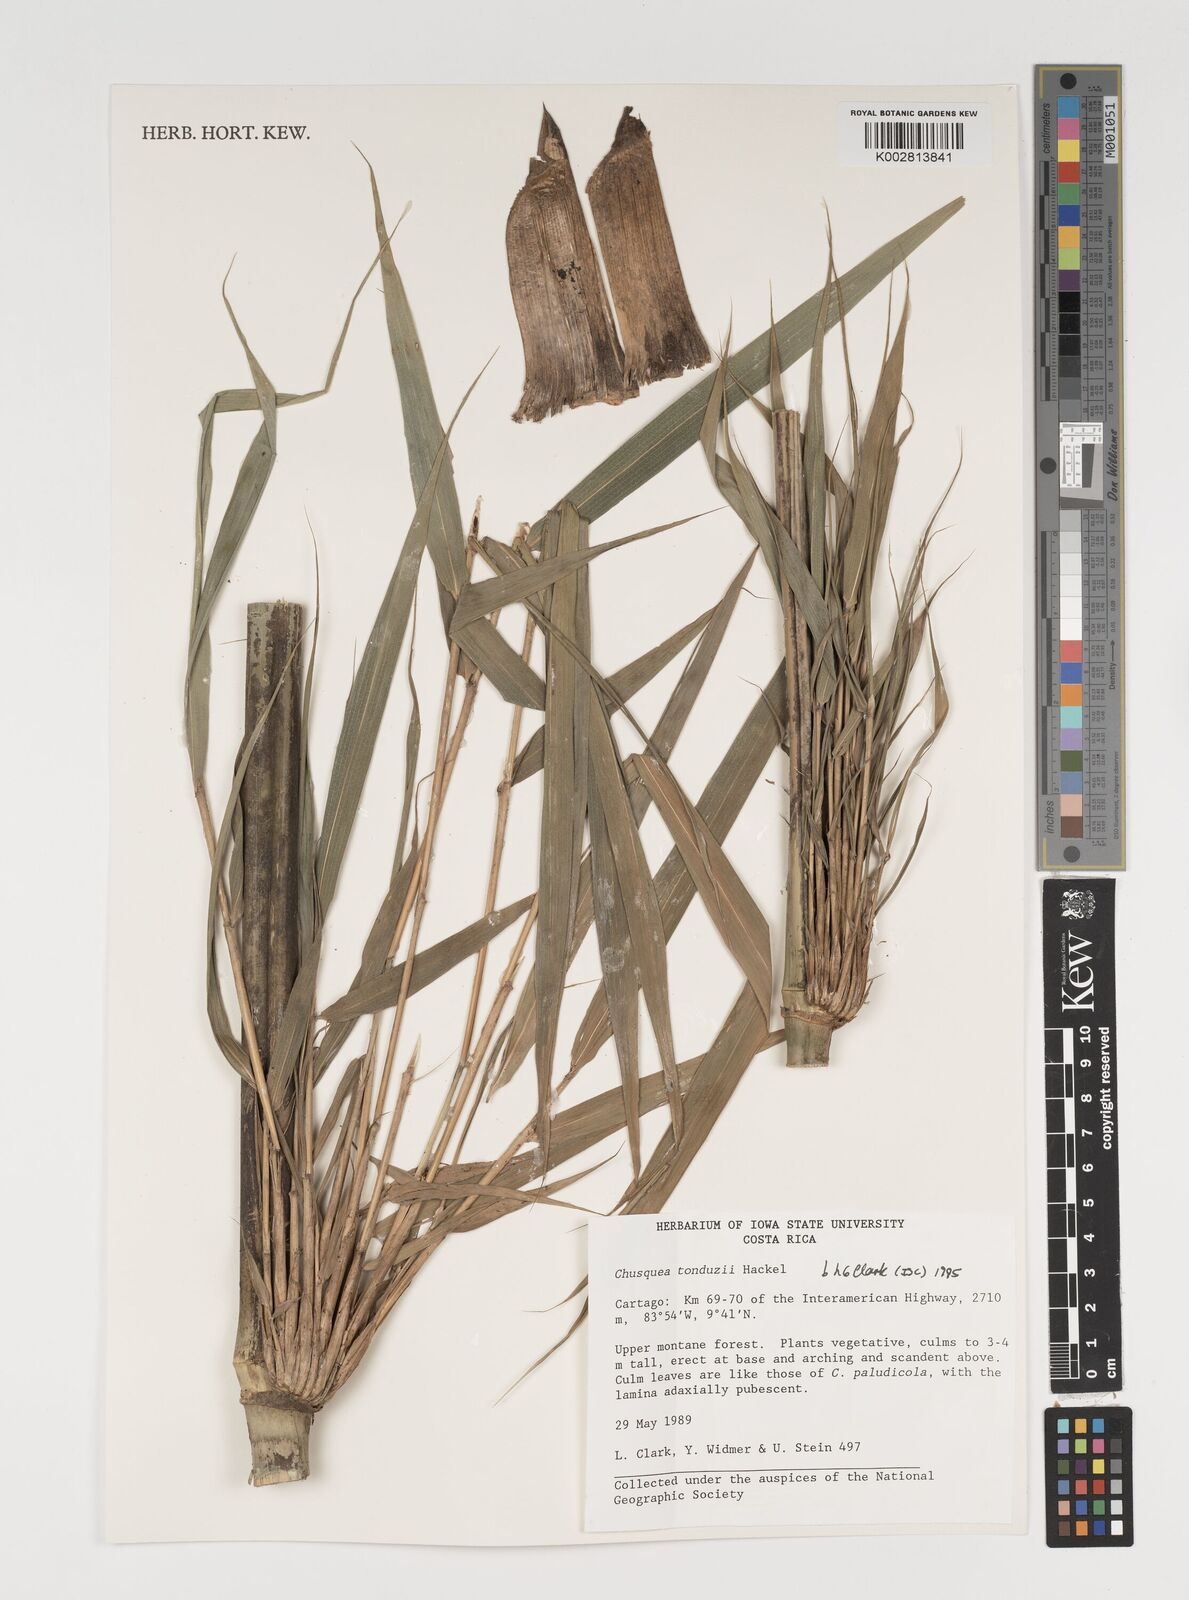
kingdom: Plantae
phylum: Tracheophyta
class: Liliopsida
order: Poales
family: Poaceae
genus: Chusquea
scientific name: Chusquea tonduzii
